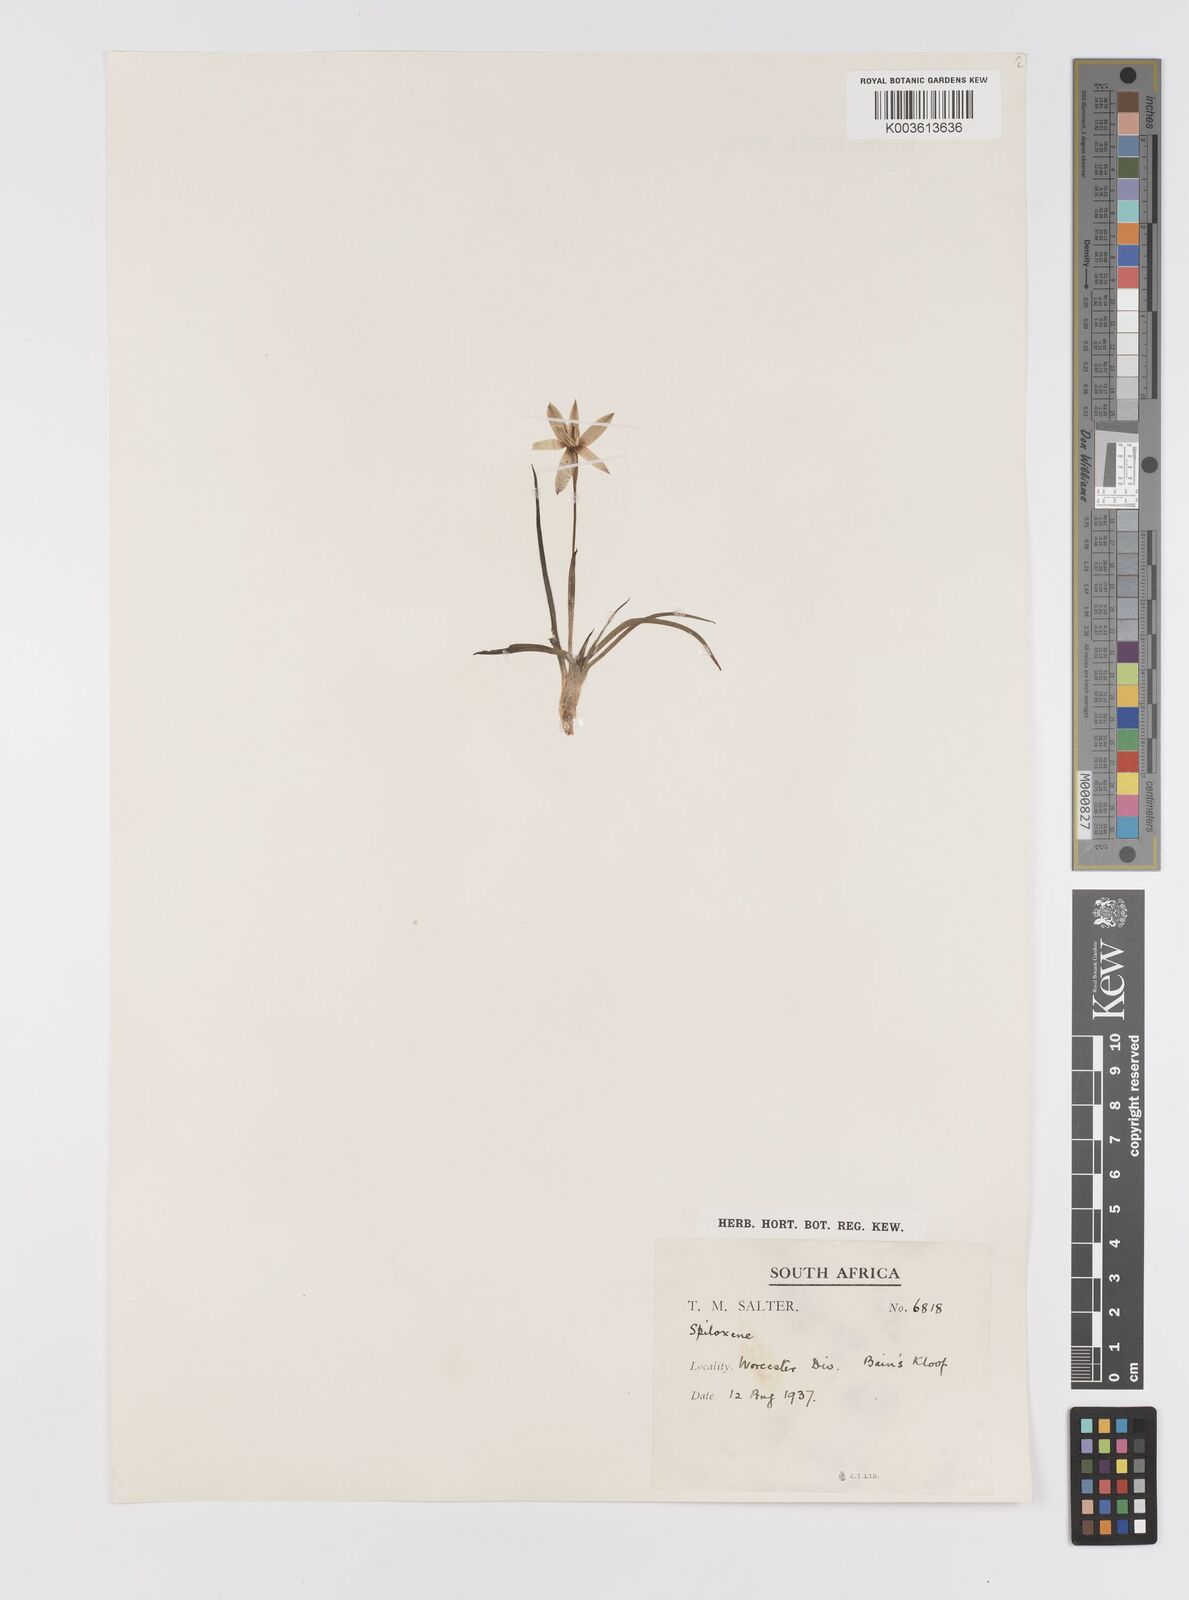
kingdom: Plantae
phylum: Tracheophyta
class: Liliopsida
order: Asparagales
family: Hypoxidaceae
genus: Pauridia
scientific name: Pauridia
